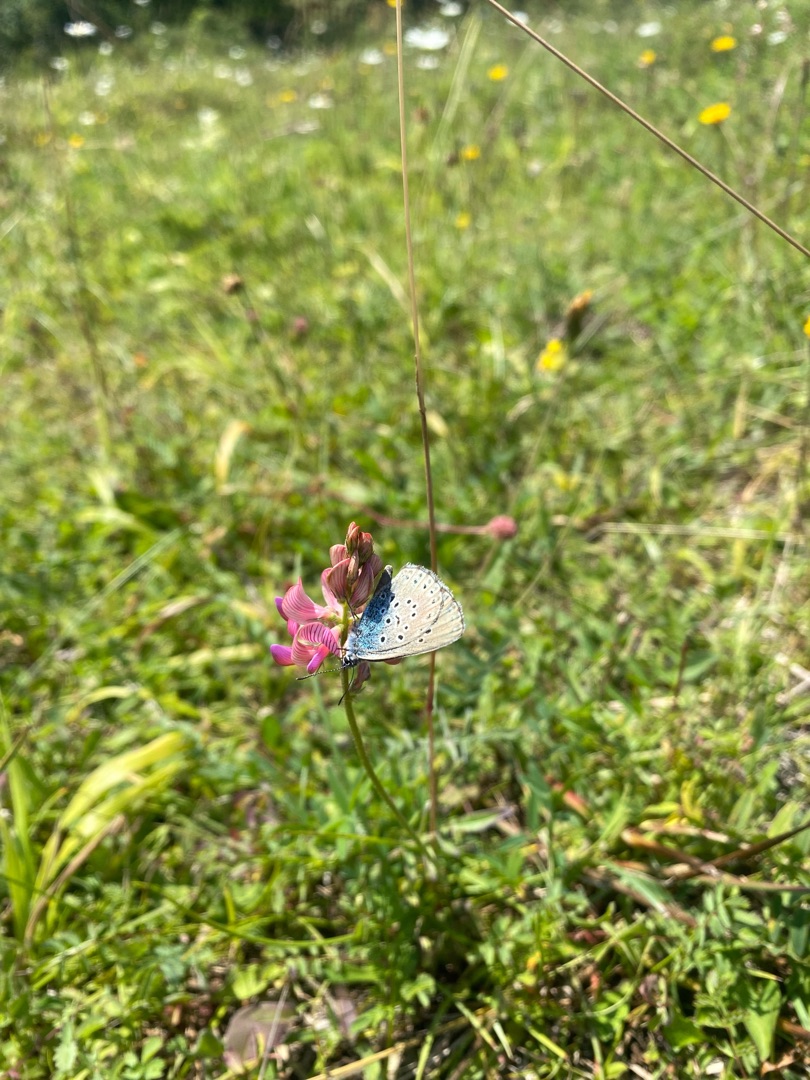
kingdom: Animalia
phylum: Arthropoda
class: Insecta
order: Lepidoptera
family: Lycaenidae
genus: Maculinea
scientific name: Maculinea arion
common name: Sortplettet blåfugl
